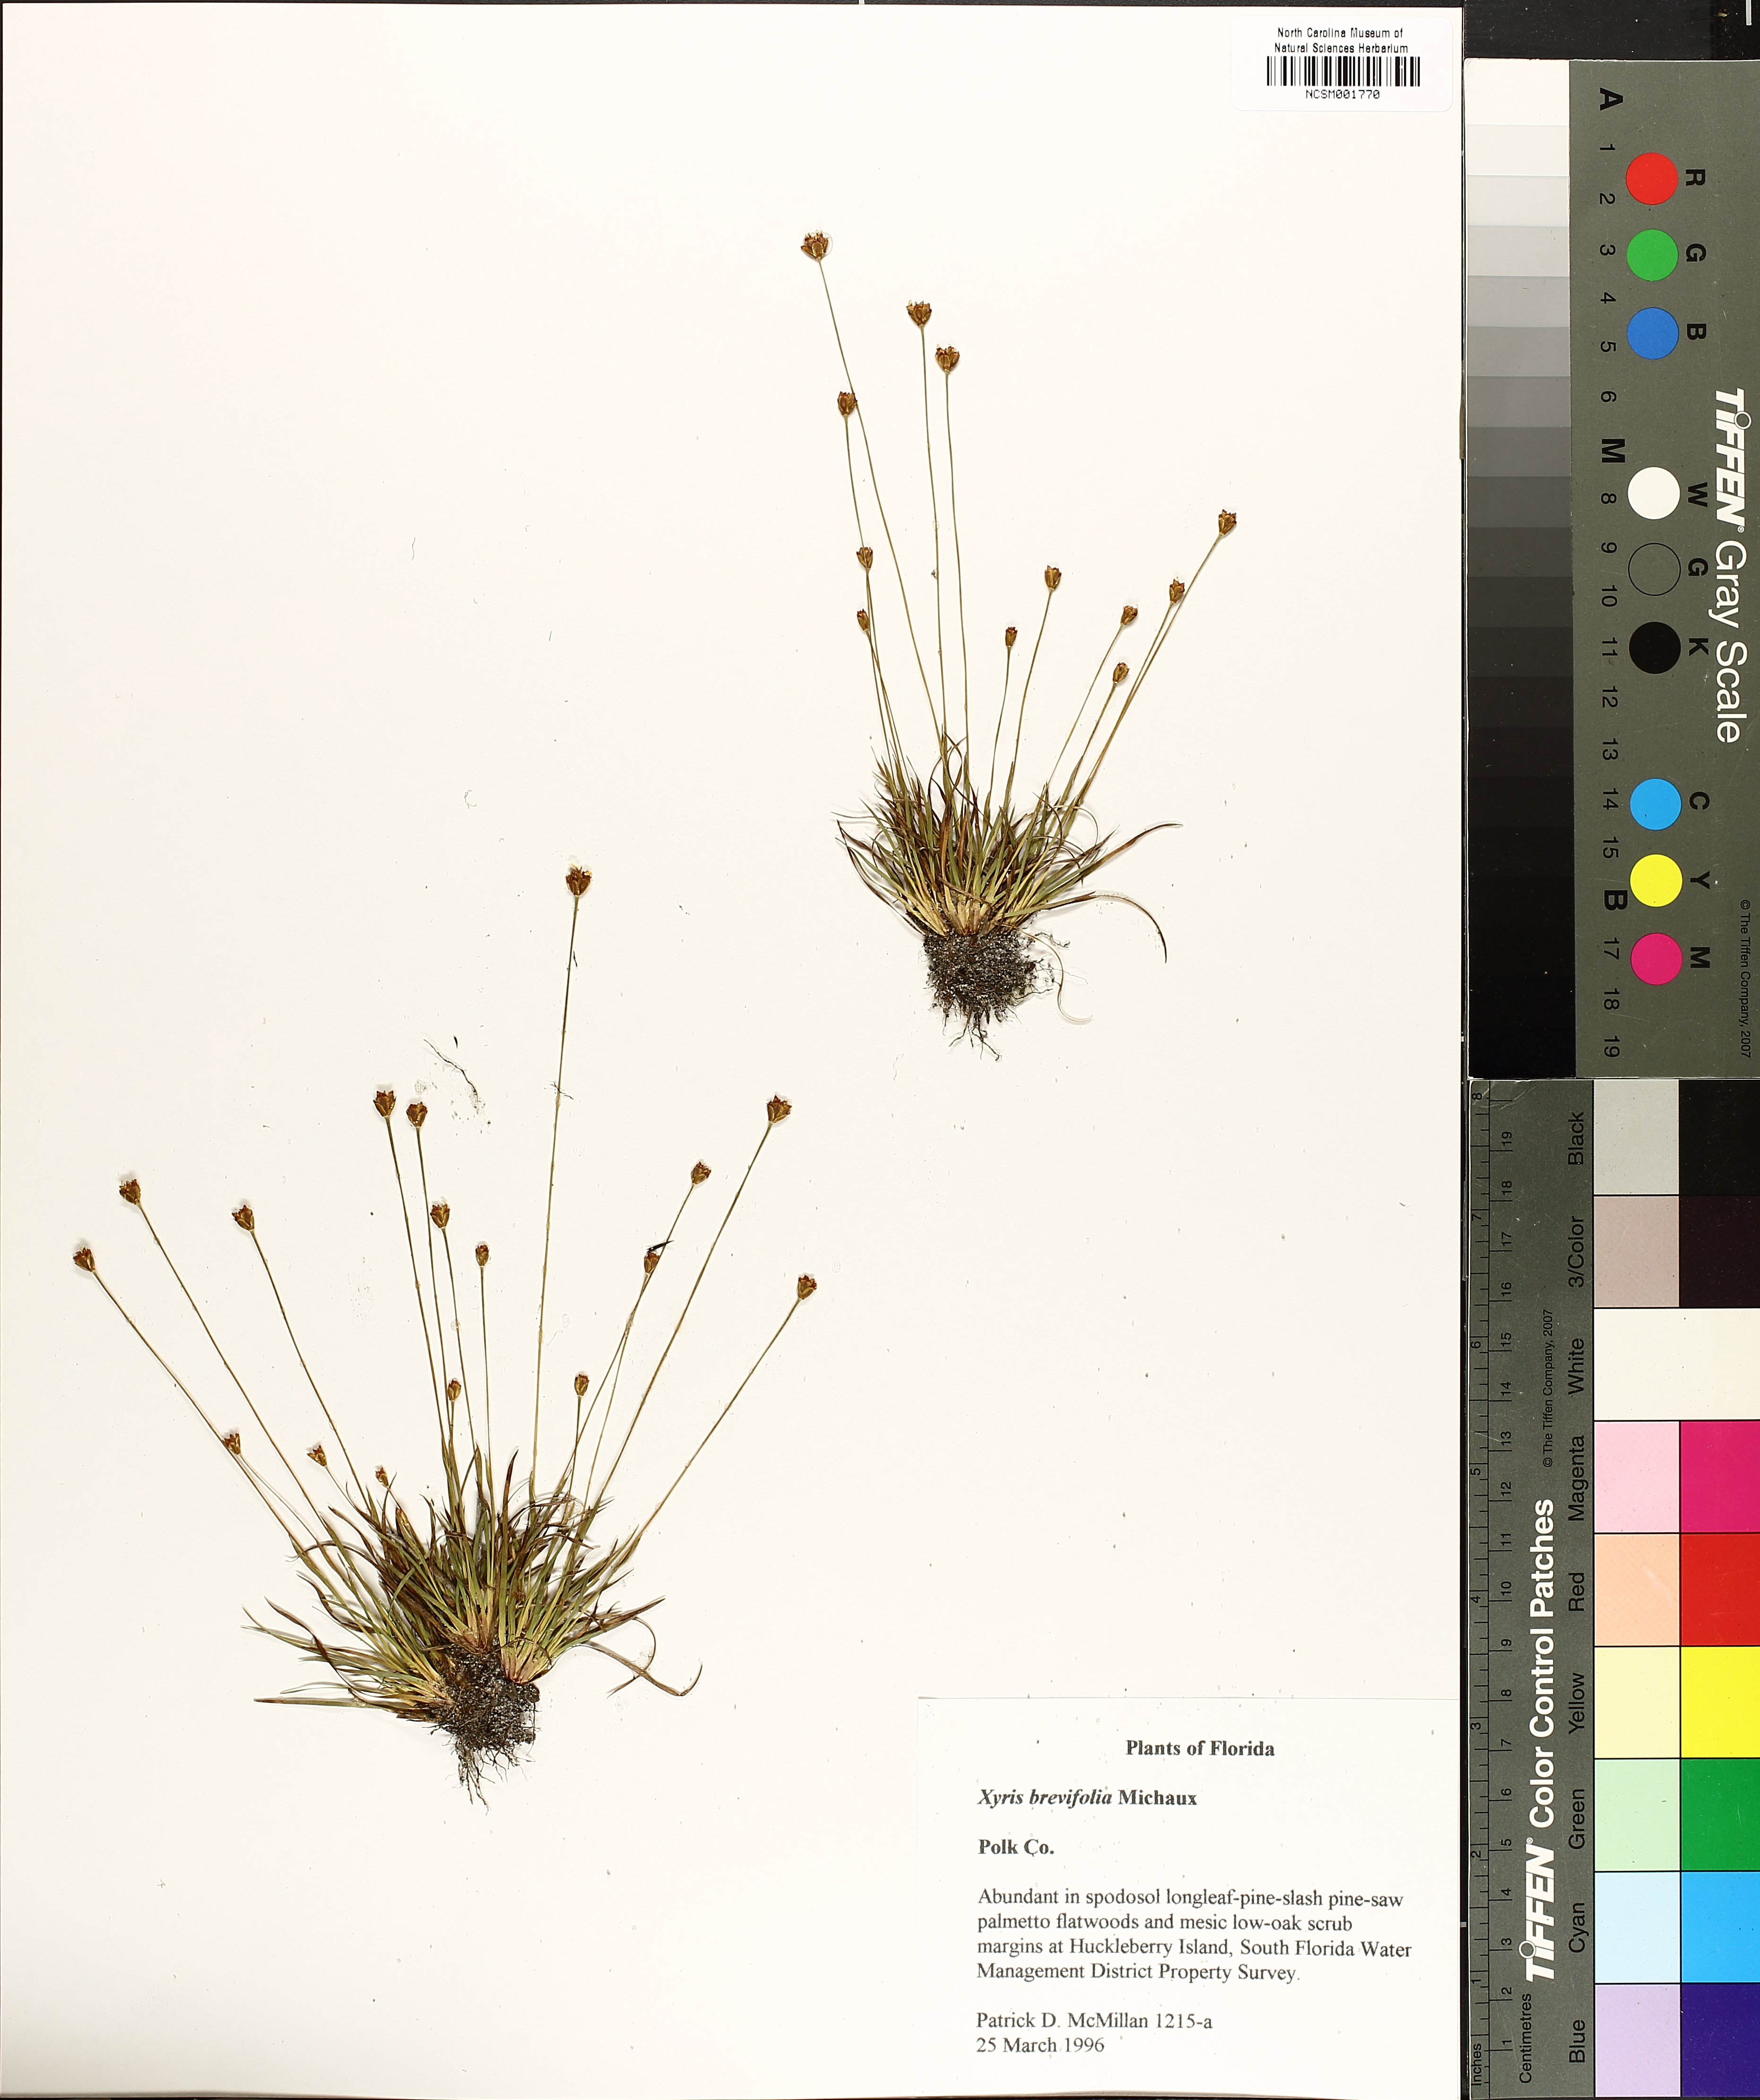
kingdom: Plantae
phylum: Tracheophyta
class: Liliopsida
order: Poales
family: Xyridaceae
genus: Xyris
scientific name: Xyris brevifolia
